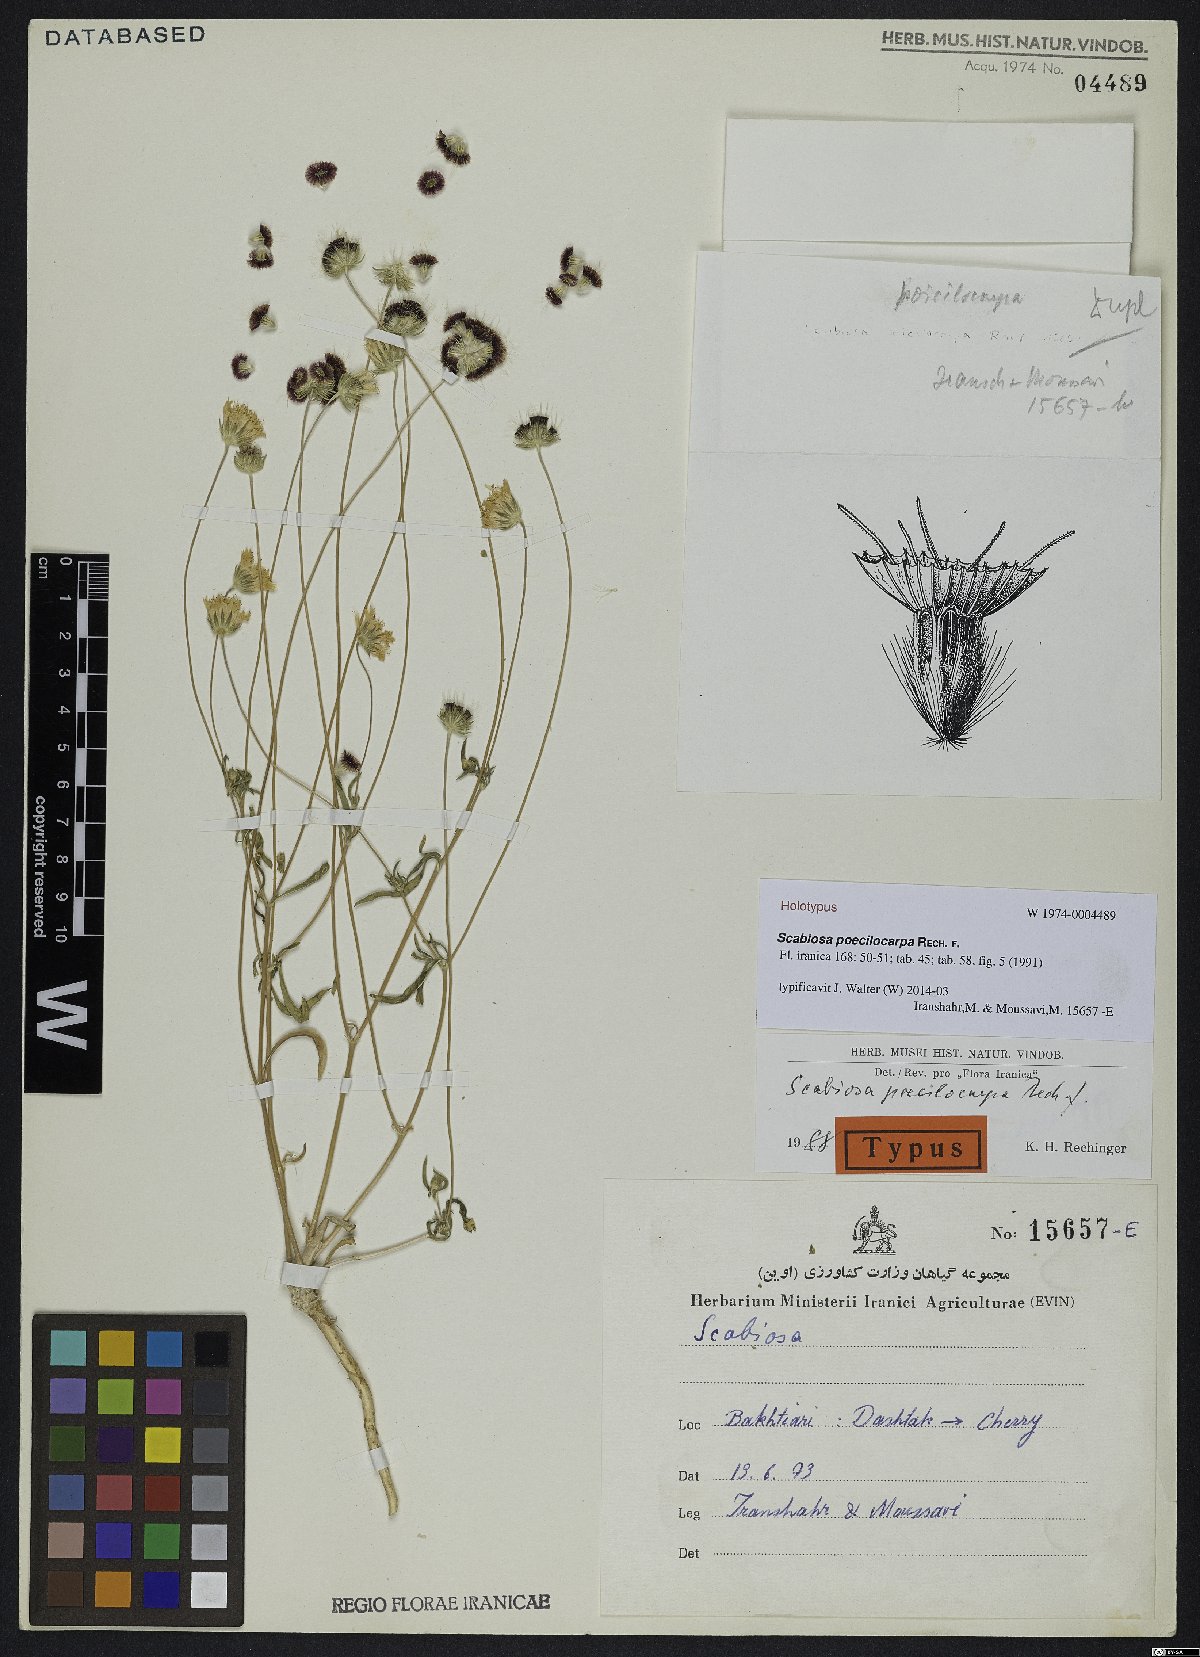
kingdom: Plantae
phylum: Tracheophyta
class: Magnoliopsida
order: Dipsacales
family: Caprifoliaceae
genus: Lomelosia
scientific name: Lomelosia poecilocarpa
